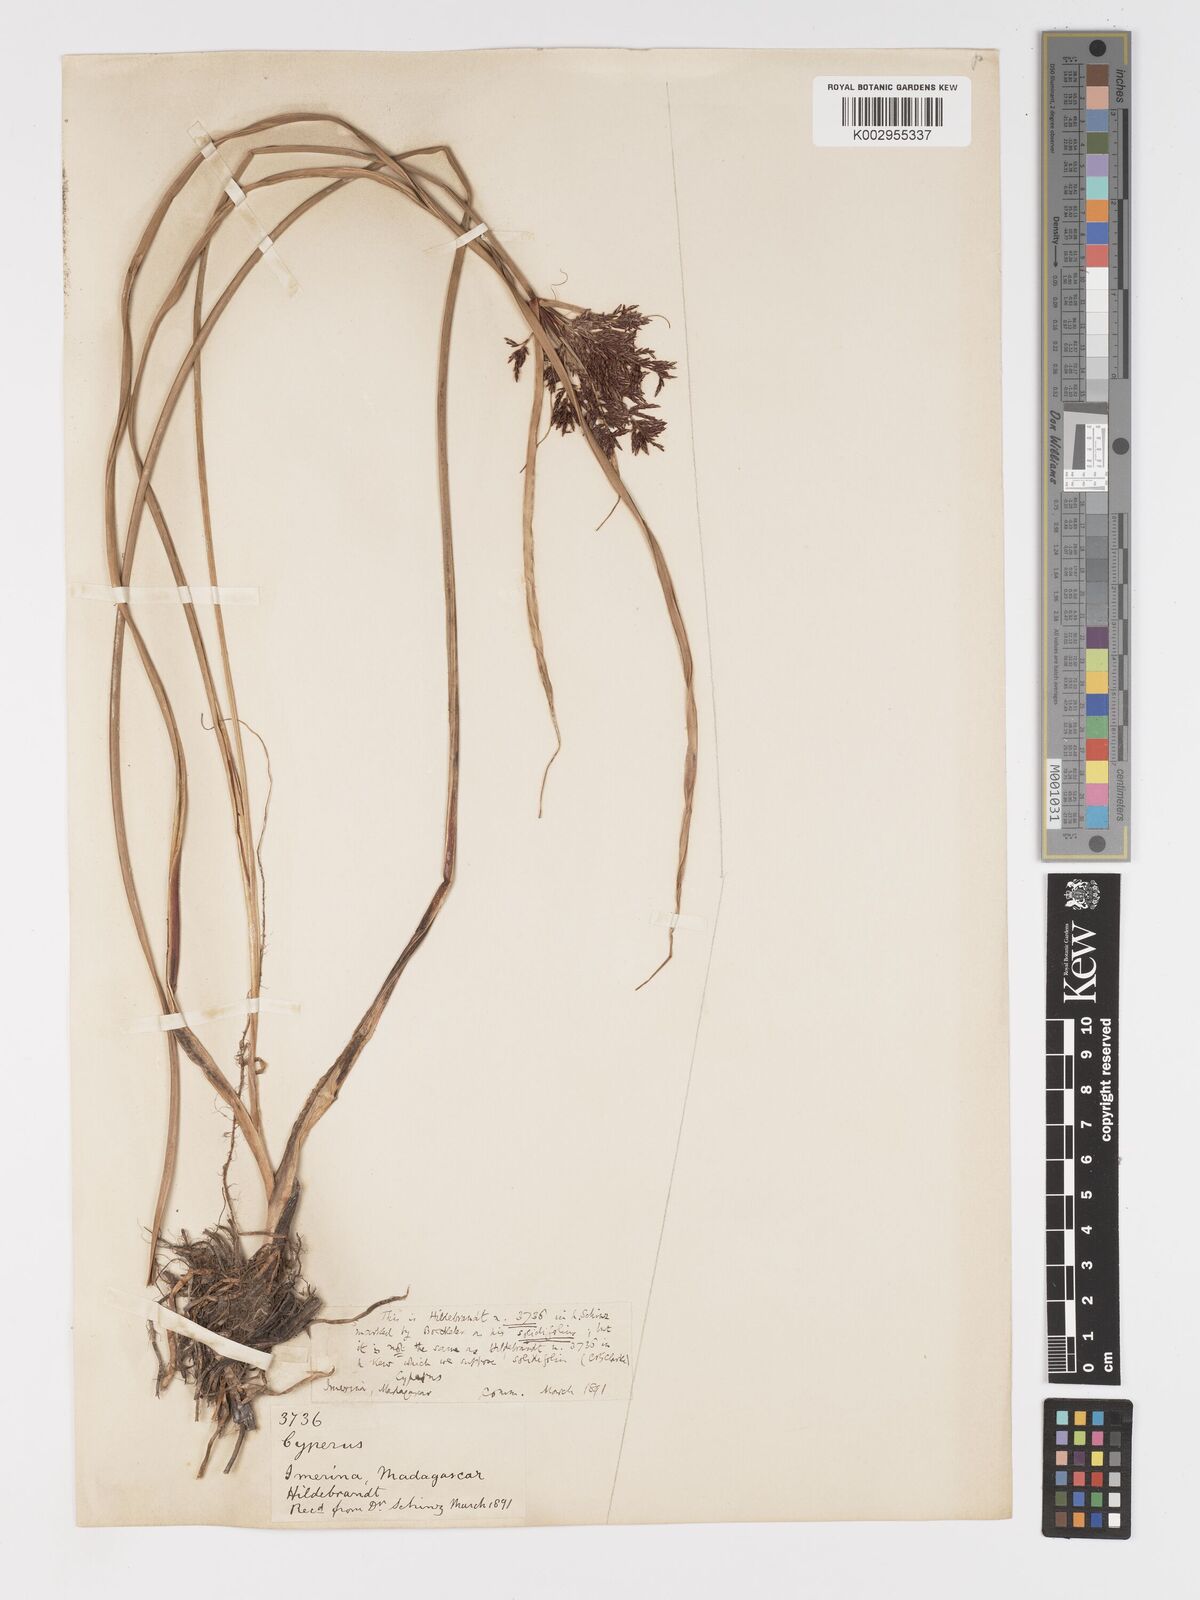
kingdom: Plantae
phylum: Tracheophyta
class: Liliopsida
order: Poales
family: Cyperaceae
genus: Cyperus
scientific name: Cyperus solidifolius
